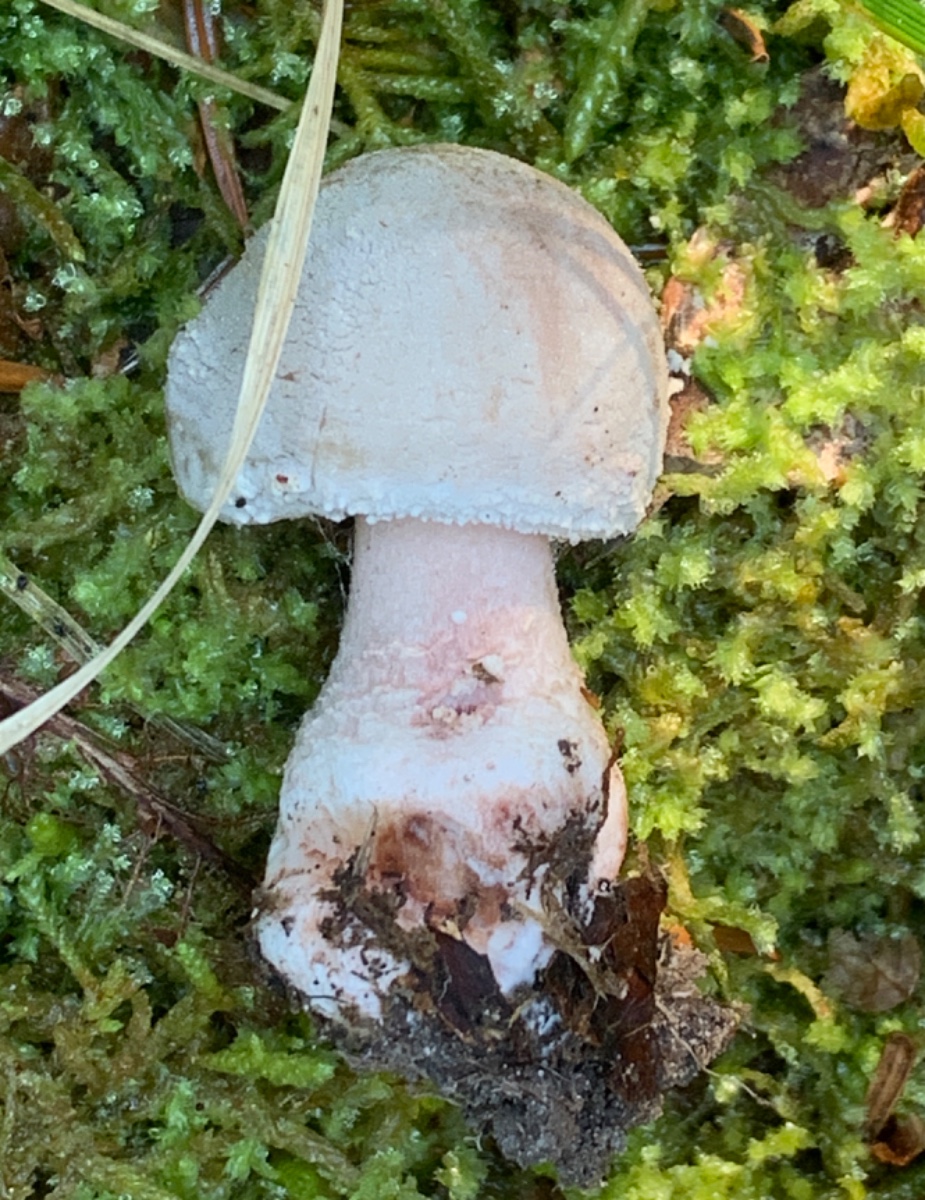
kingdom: Fungi
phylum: Basidiomycota
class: Agaricomycetes
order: Agaricales
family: Amanitaceae
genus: Amanita
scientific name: Amanita rubescens
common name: rødmende fluesvamp
